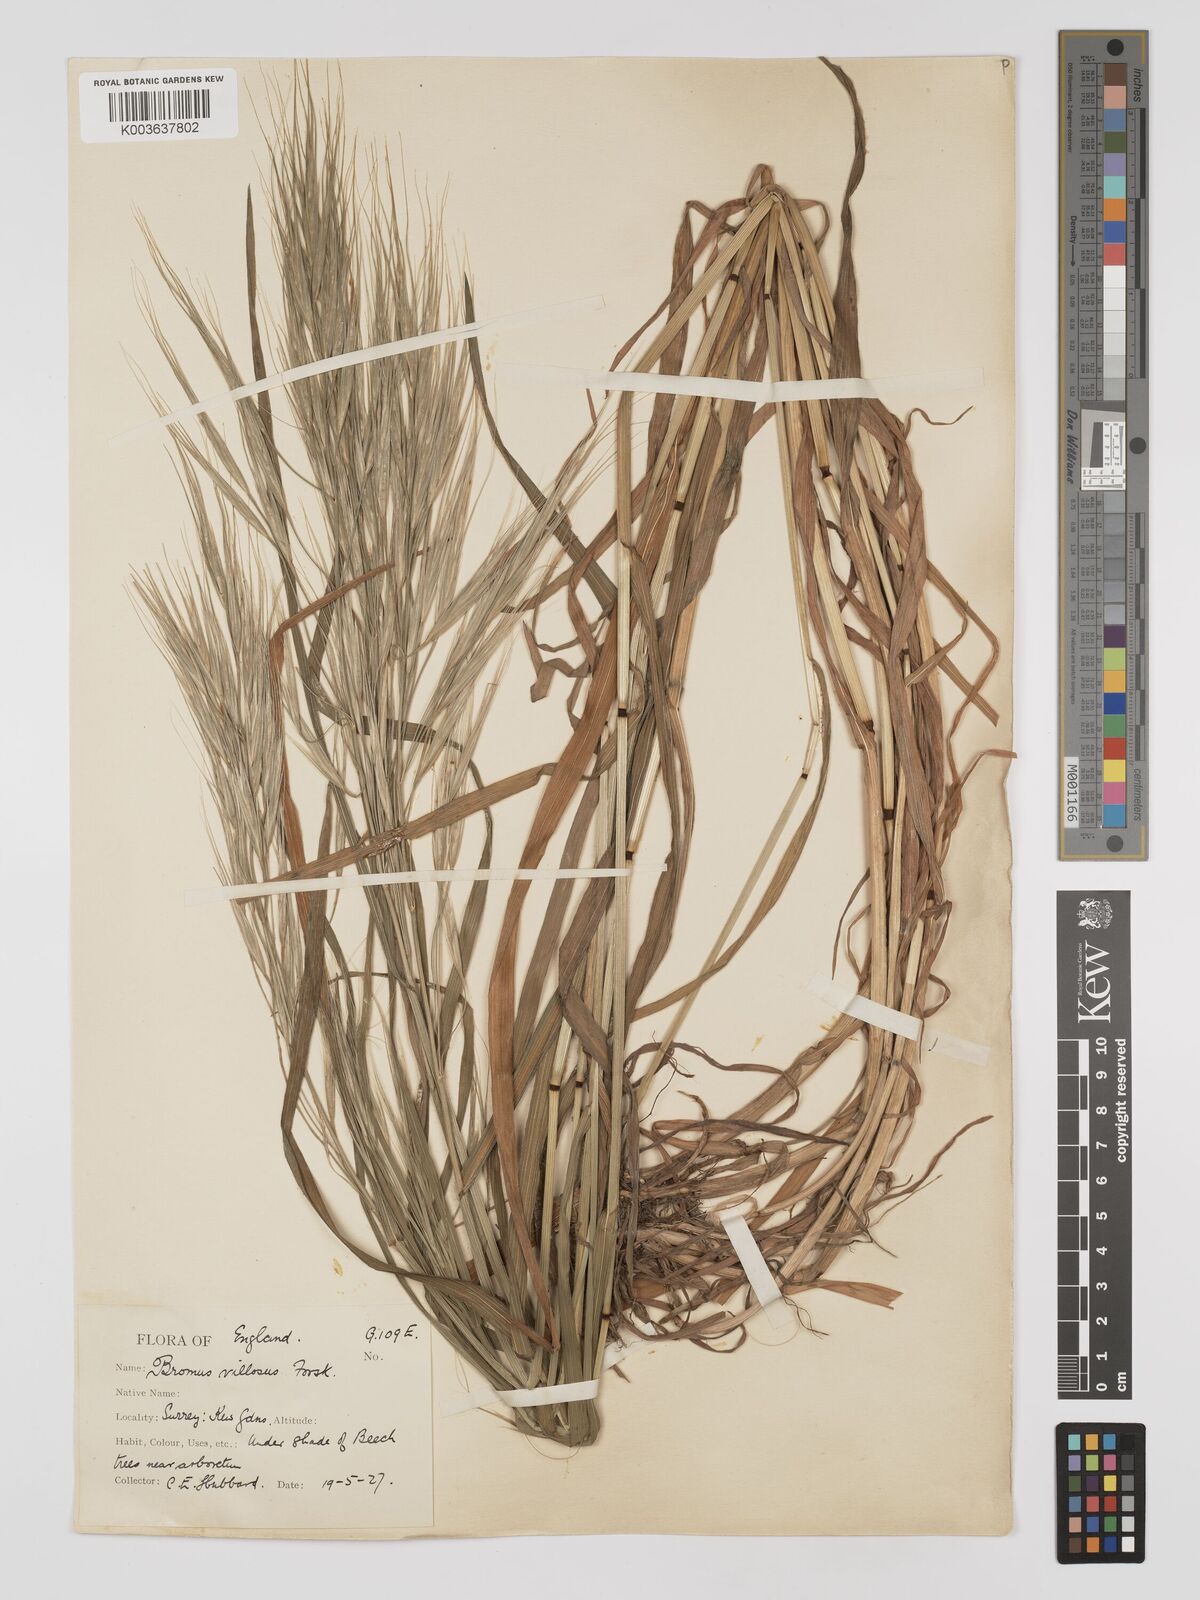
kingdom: Plantae
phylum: Tracheophyta
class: Liliopsida
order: Poales
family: Poaceae
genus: Bromus
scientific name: Bromus
